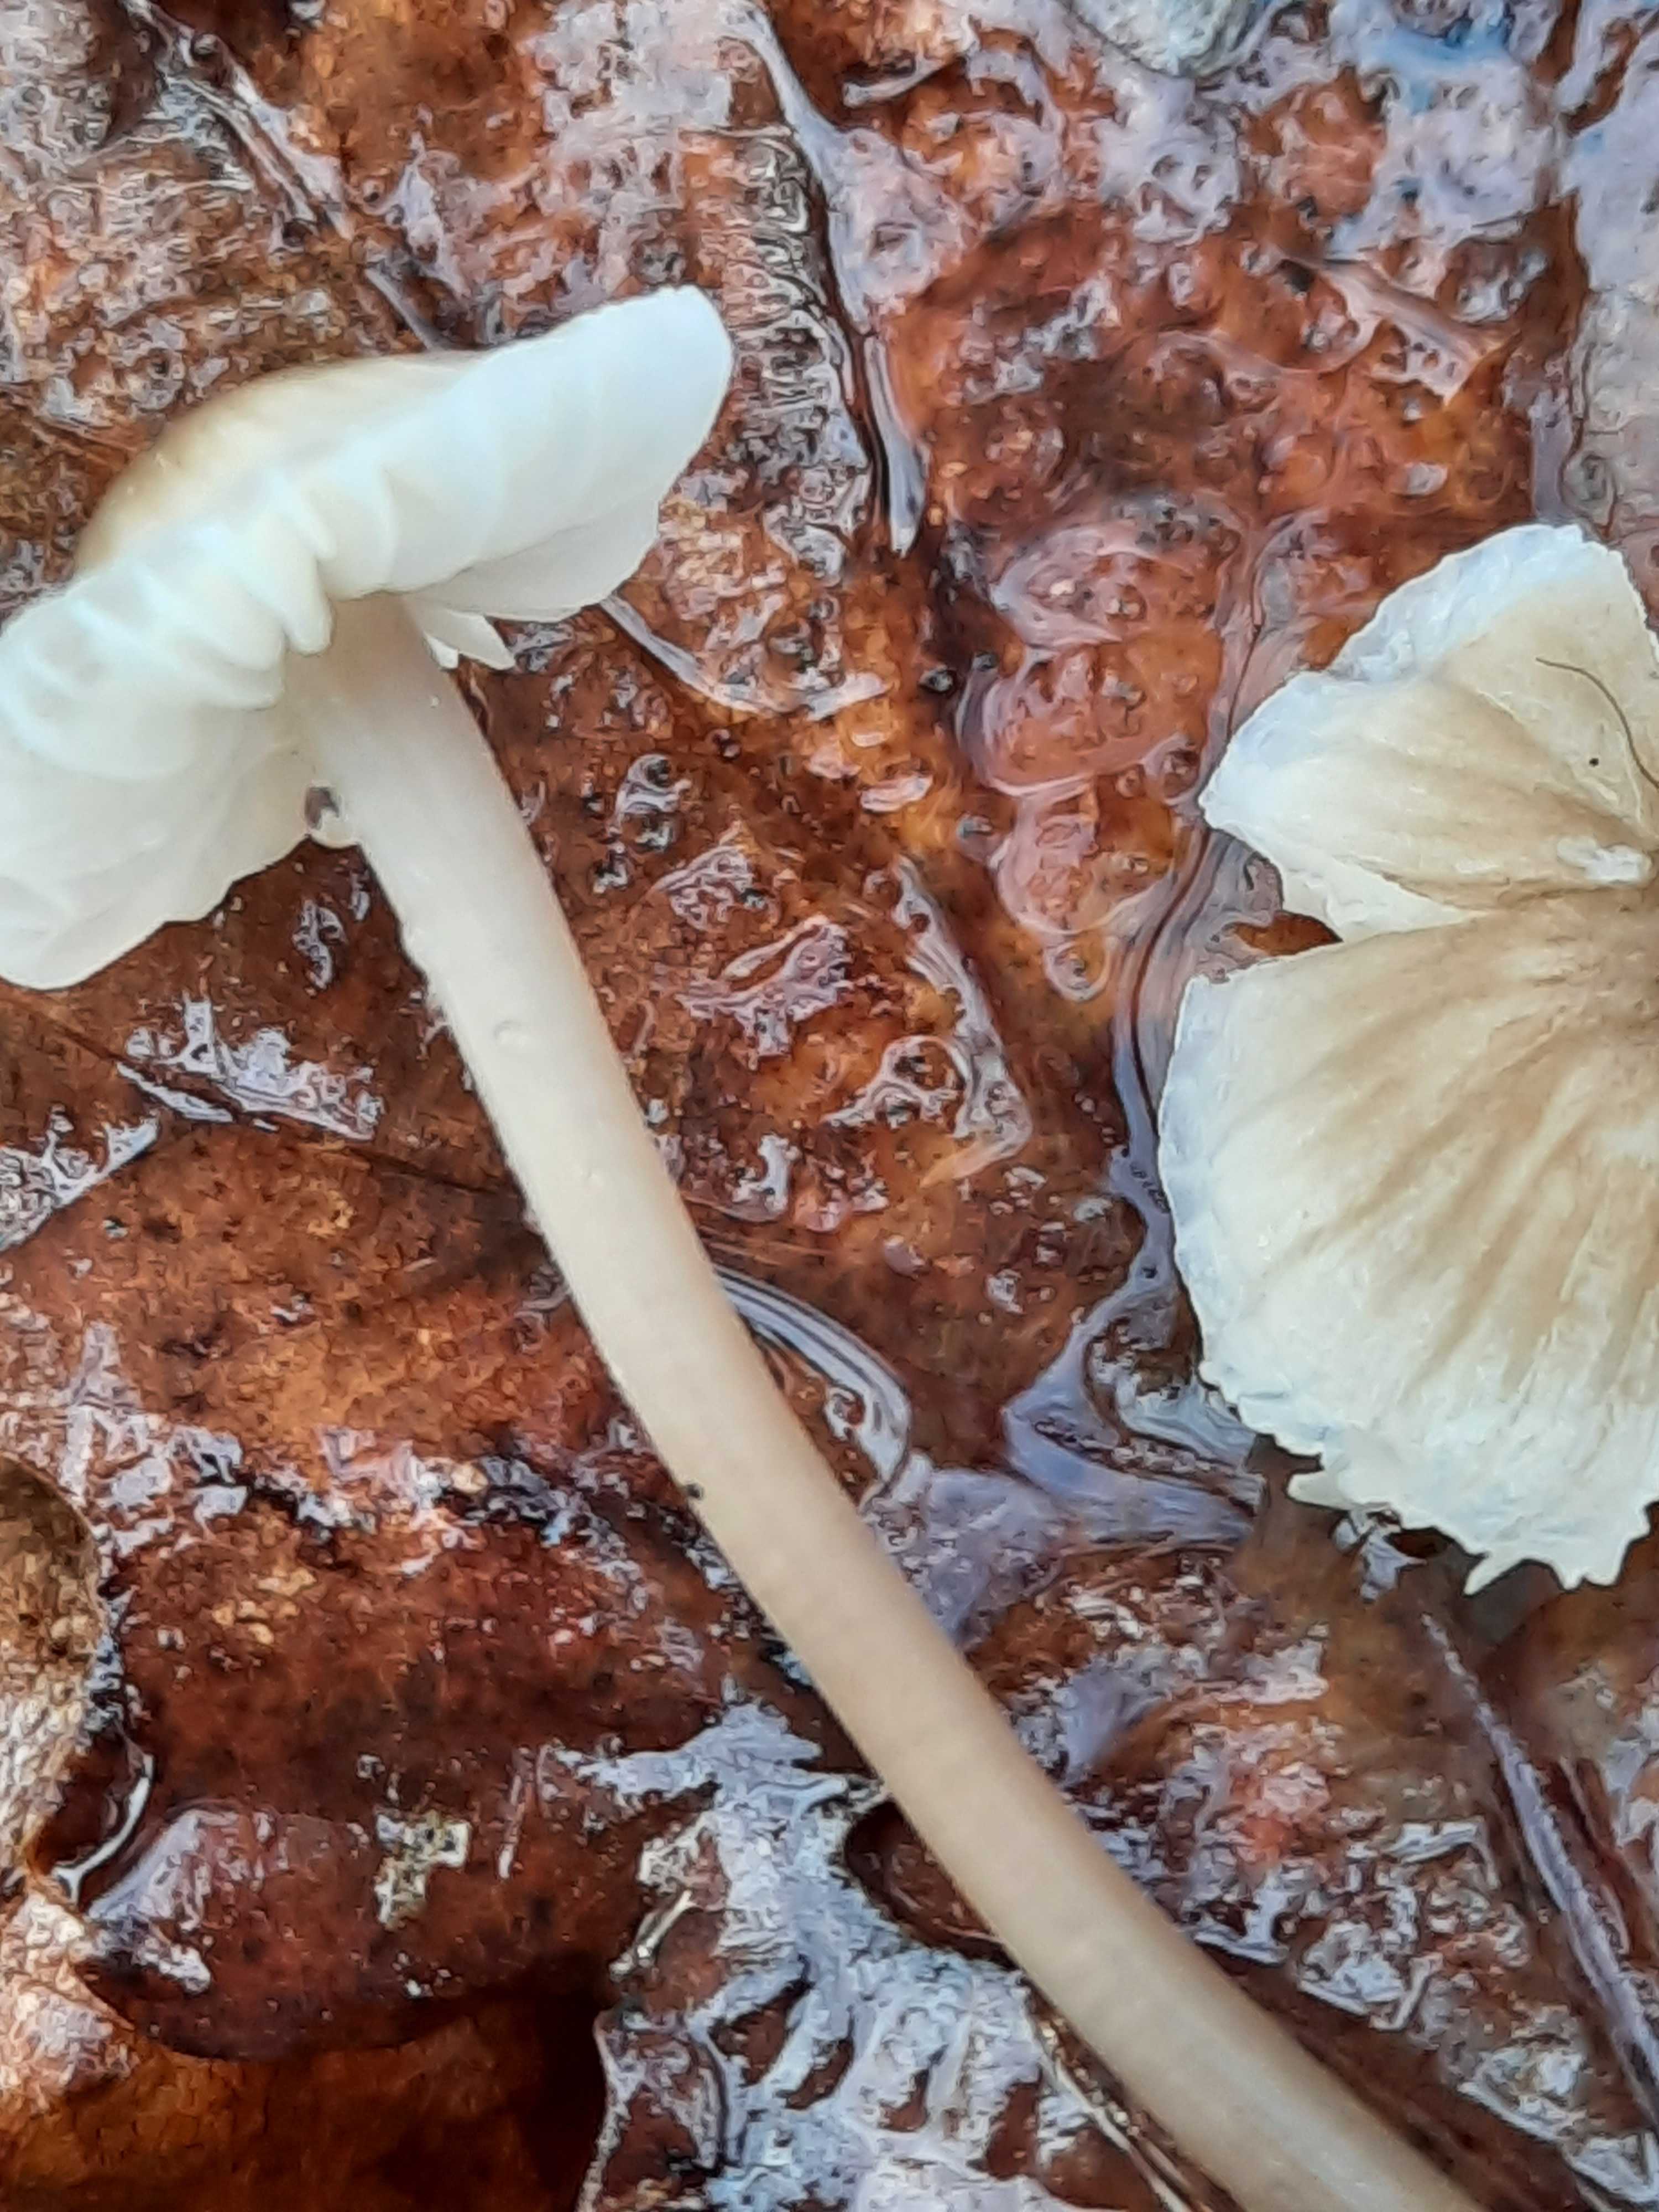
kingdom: Fungi
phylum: Basidiomycota
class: Agaricomycetes
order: Agaricales
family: Mycenaceae
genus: Mycena
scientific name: Mycena
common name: huesvamp
